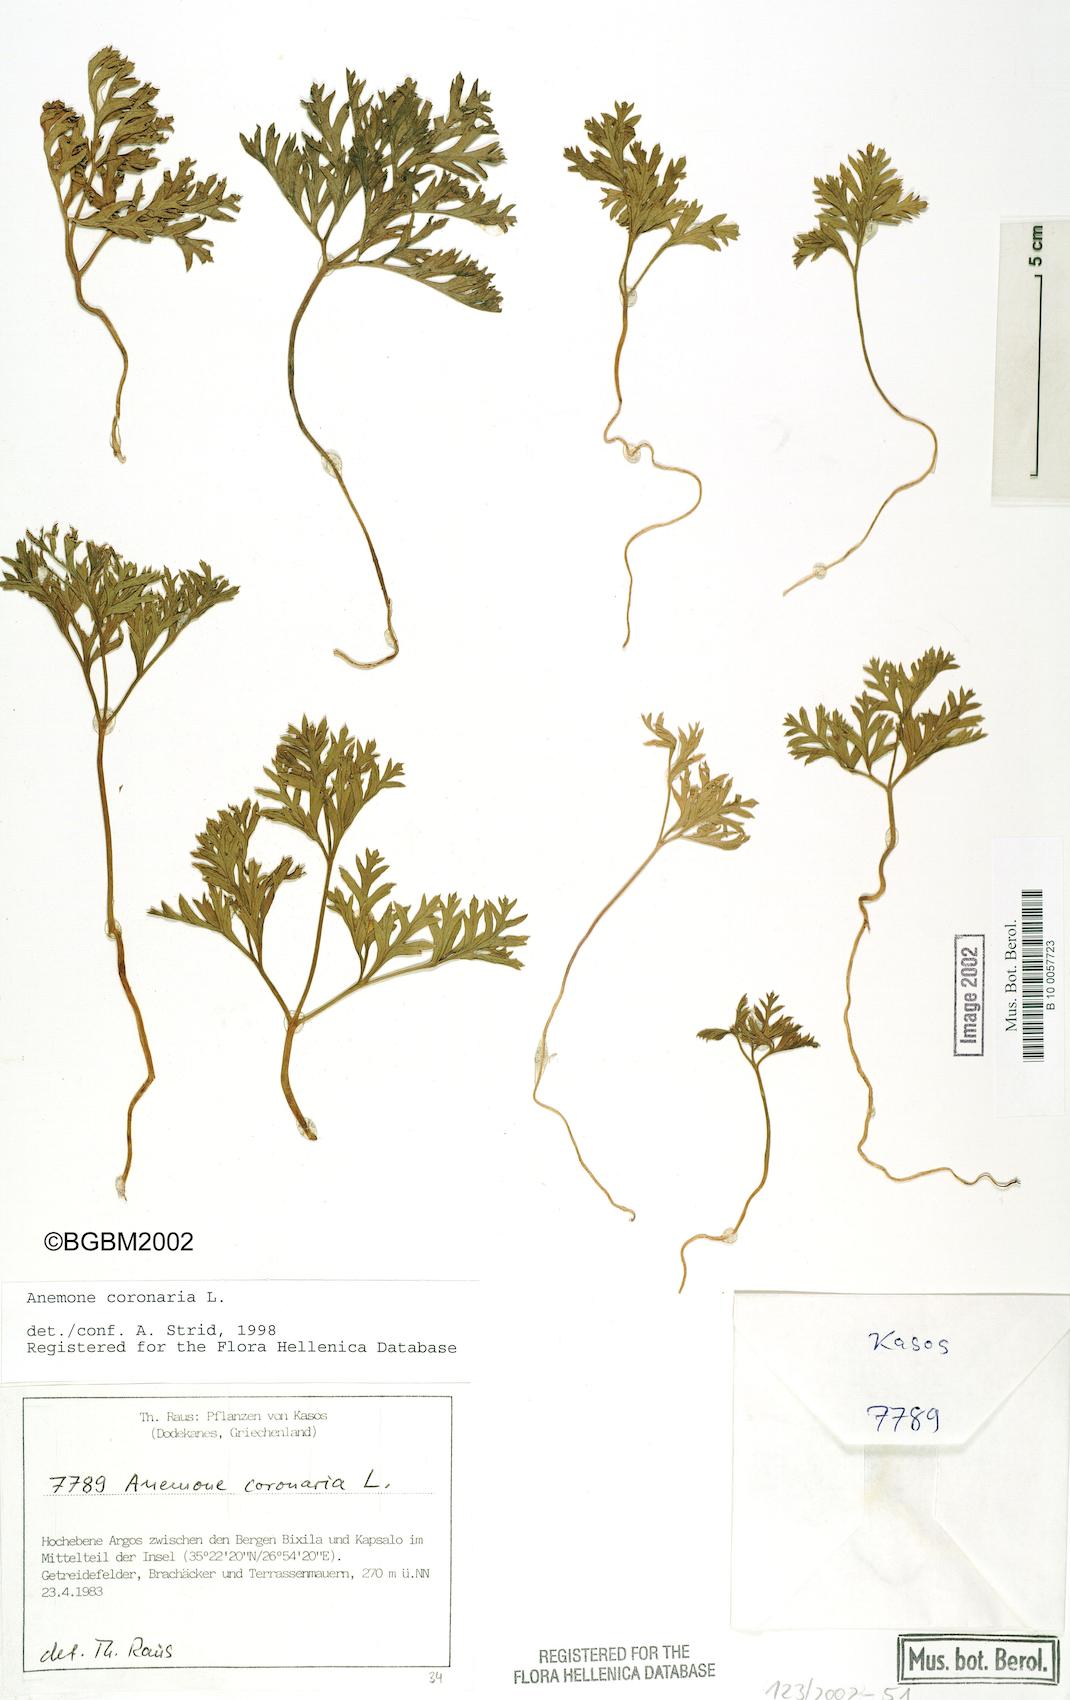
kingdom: Plantae
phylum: Tracheophyta
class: Magnoliopsida
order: Ranunculales
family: Ranunculaceae
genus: Anemone
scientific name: Anemone coronaria
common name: Poppy anemone
